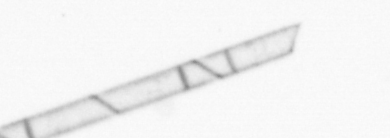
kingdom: Chromista
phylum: Ochrophyta
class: Bacillariophyceae
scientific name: Bacillariophyceae
